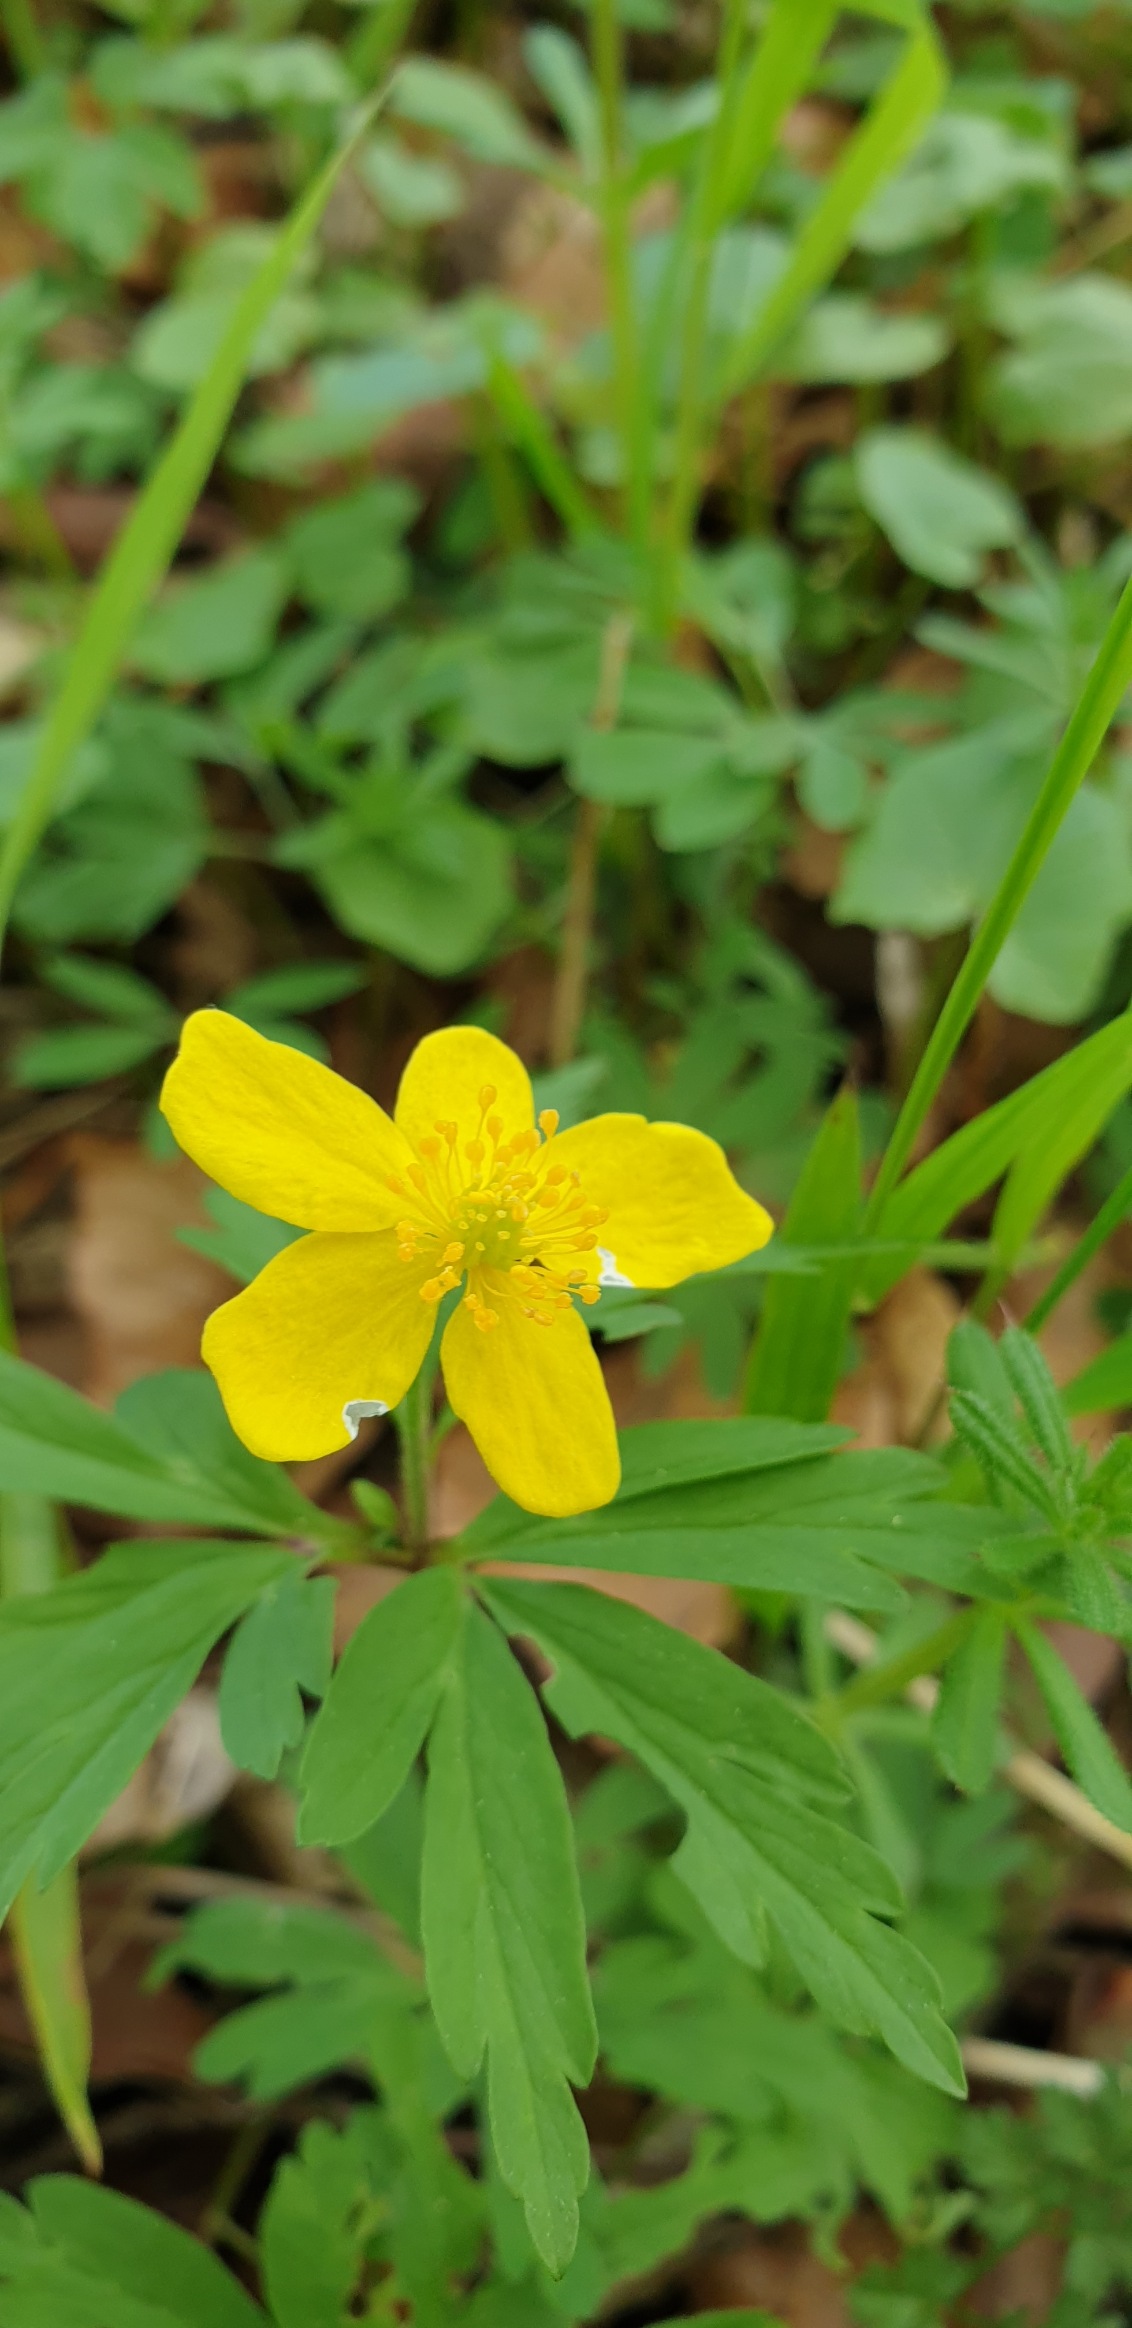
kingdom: Plantae
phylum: Tracheophyta
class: Magnoliopsida
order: Ranunculales
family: Ranunculaceae
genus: Anemone
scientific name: Anemone ranunculoides
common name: Gul anemone
